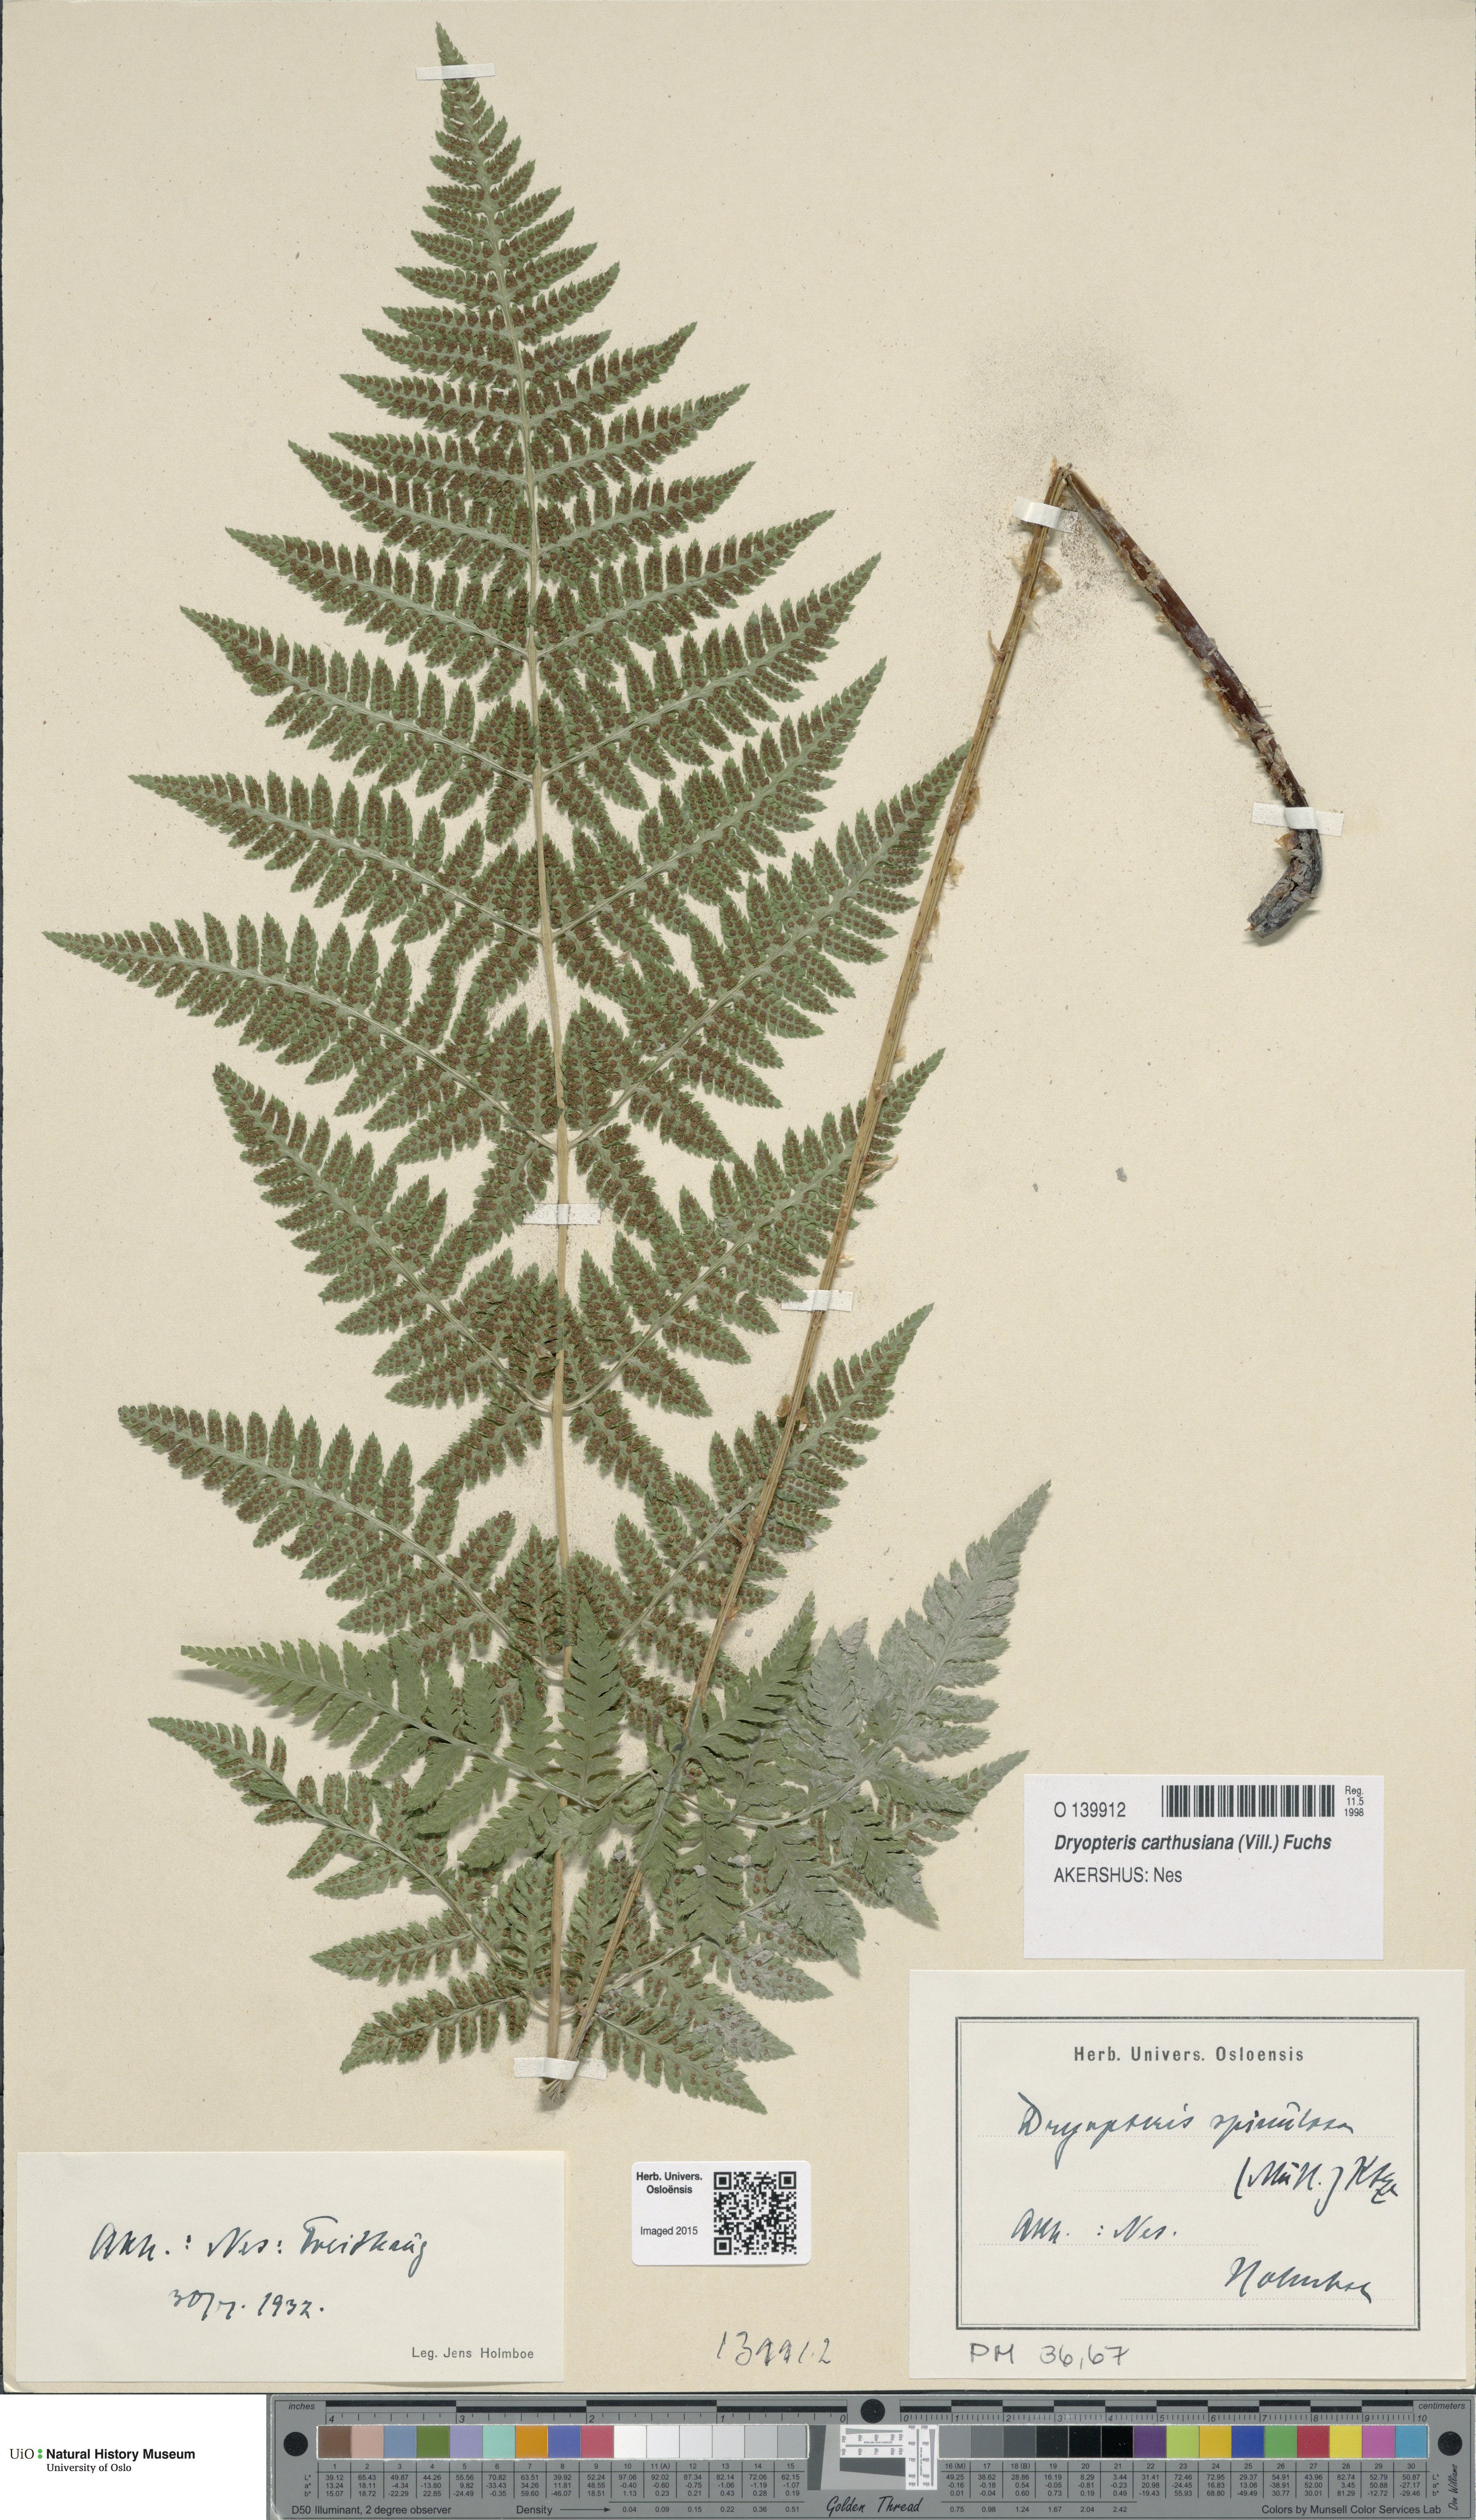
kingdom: Plantae
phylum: Tracheophyta
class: Polypodiopsida
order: Polypodiales
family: Dryopteridaceae
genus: Dryopteris
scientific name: Dryopteris carthusiana
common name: Narrow buckler-fern
